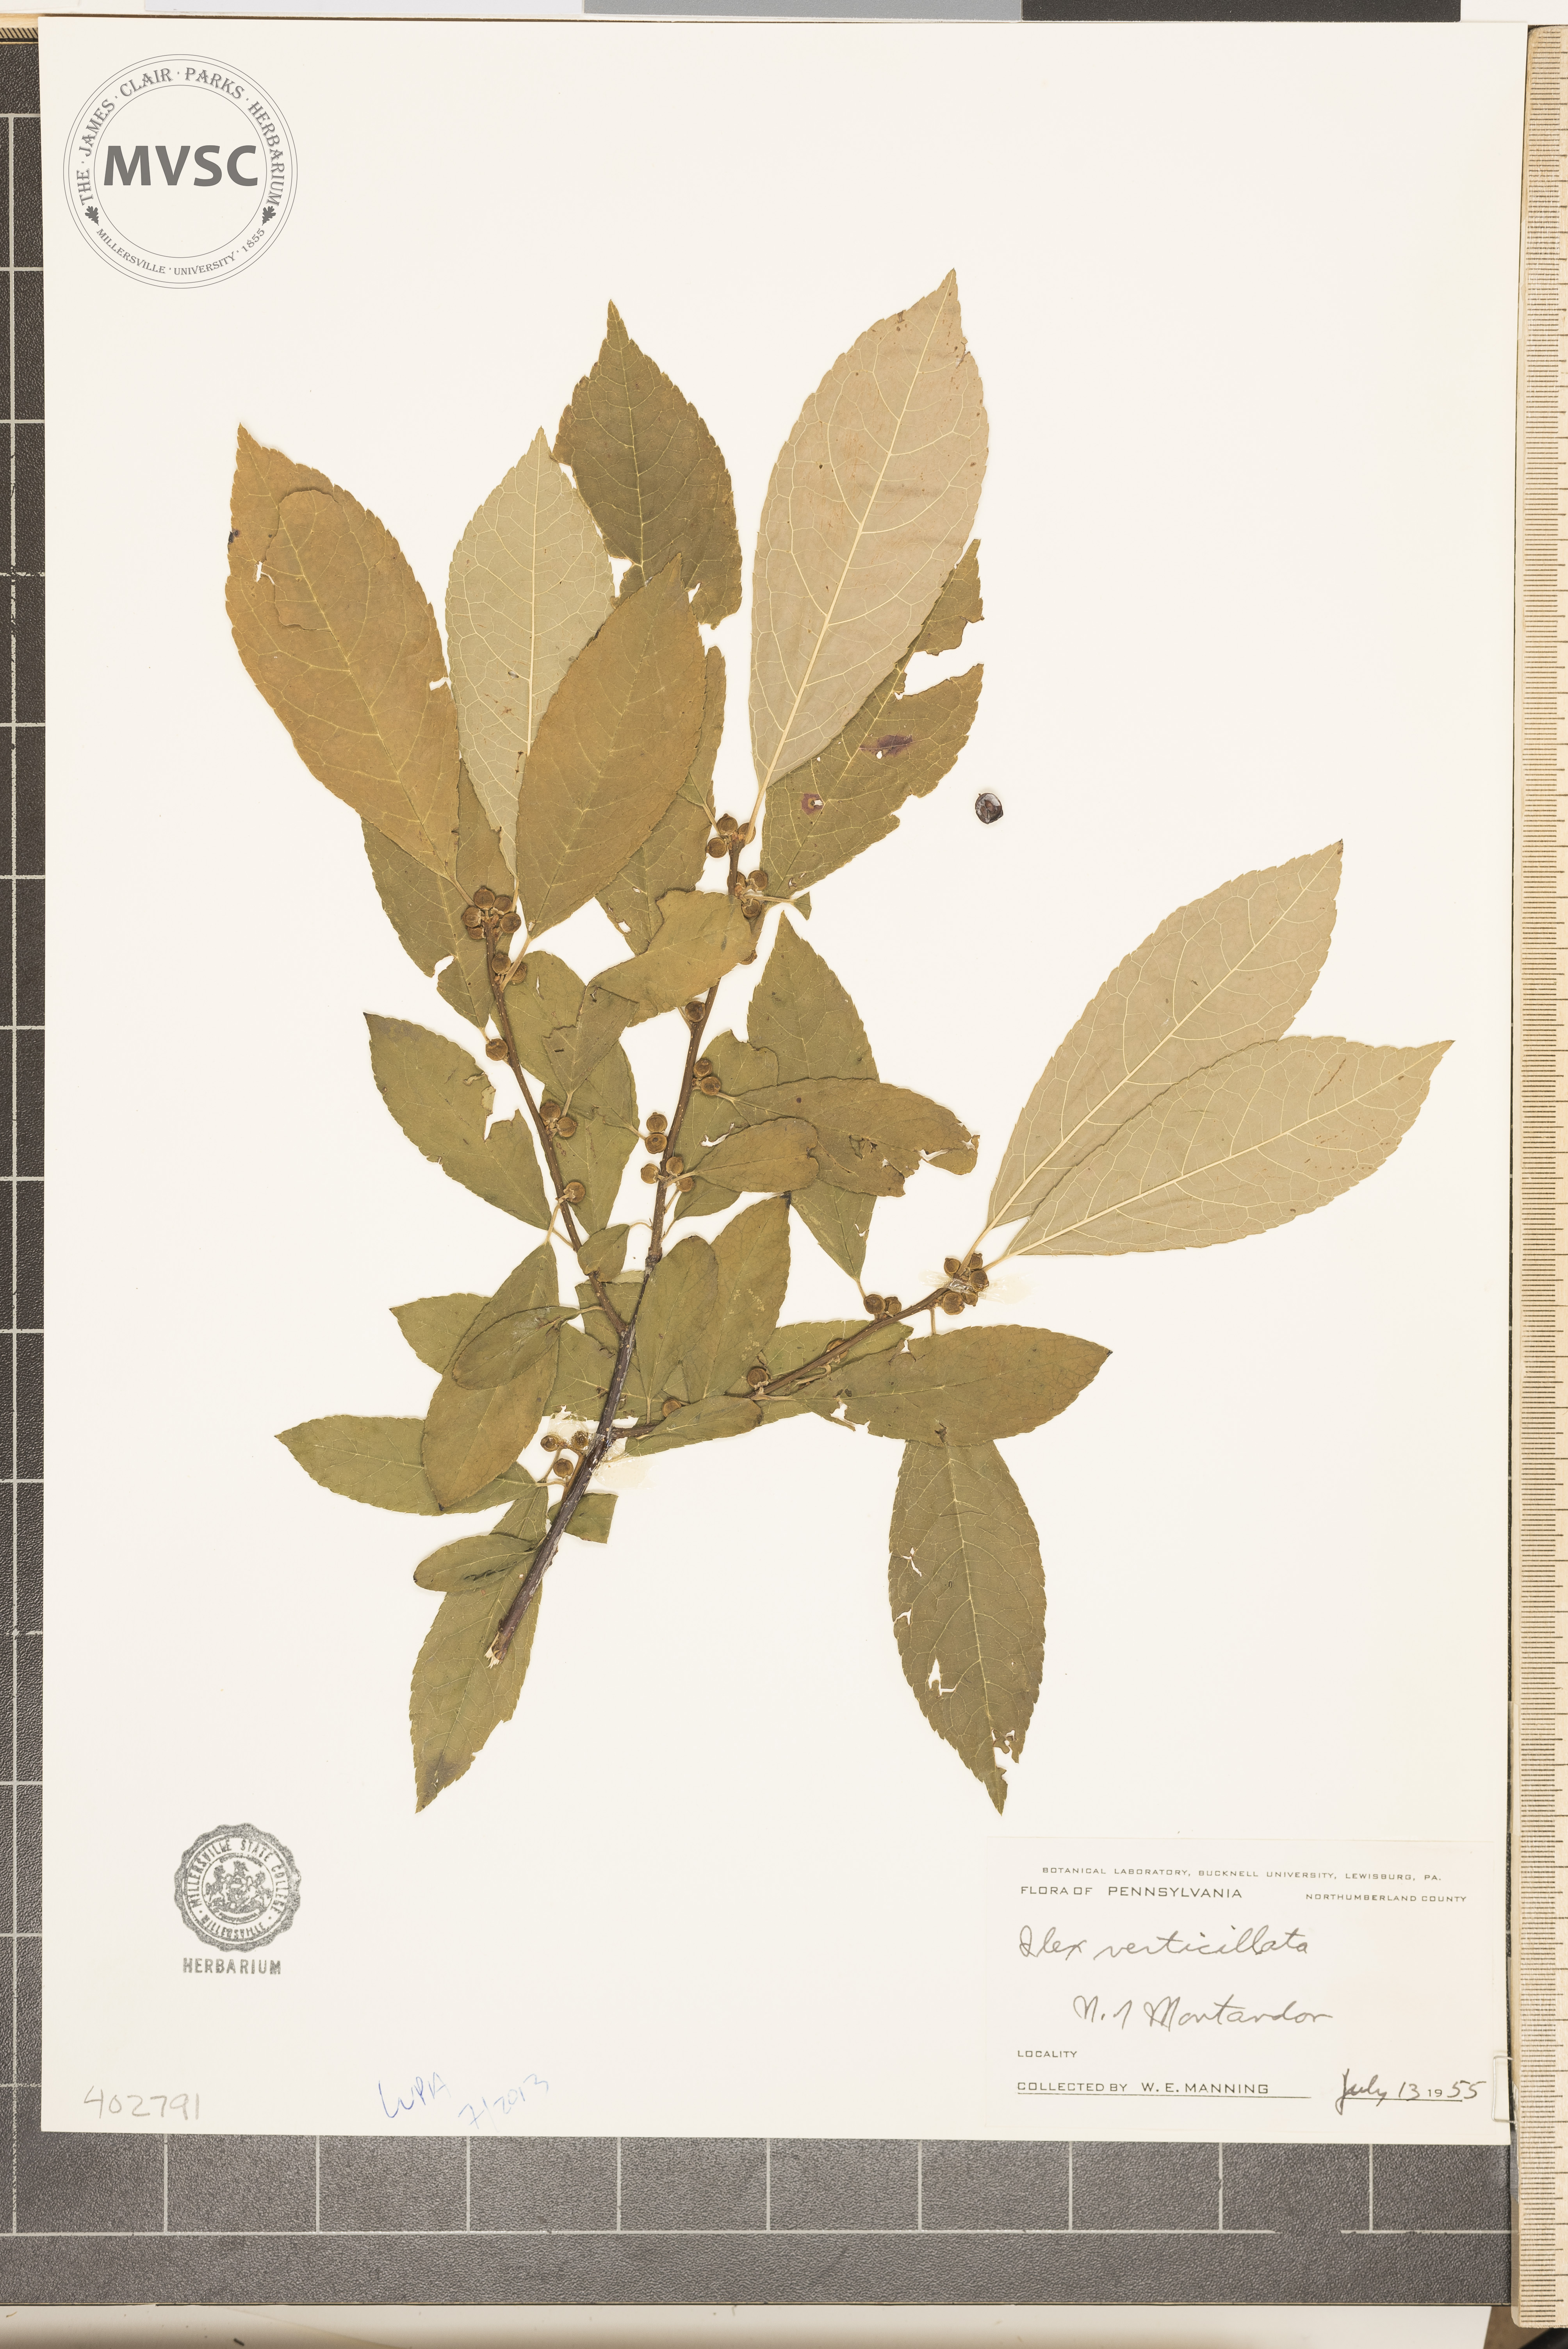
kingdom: Plantae
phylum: Tracheophyta
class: Magnoliopsida
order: Aquifoliales
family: Aquifoliaceae
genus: Ilex
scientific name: Ilex verticillata
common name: Winterberry
